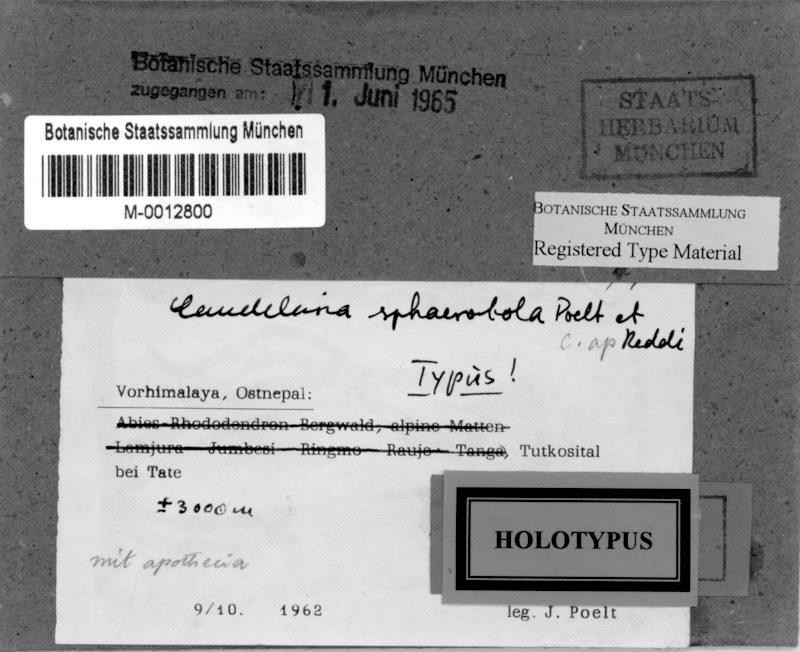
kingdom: Fungi
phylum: Ascomycota
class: Candelariomycetes
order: Candelariales
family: Candelariaceae
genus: Candelaria
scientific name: Candelaria
